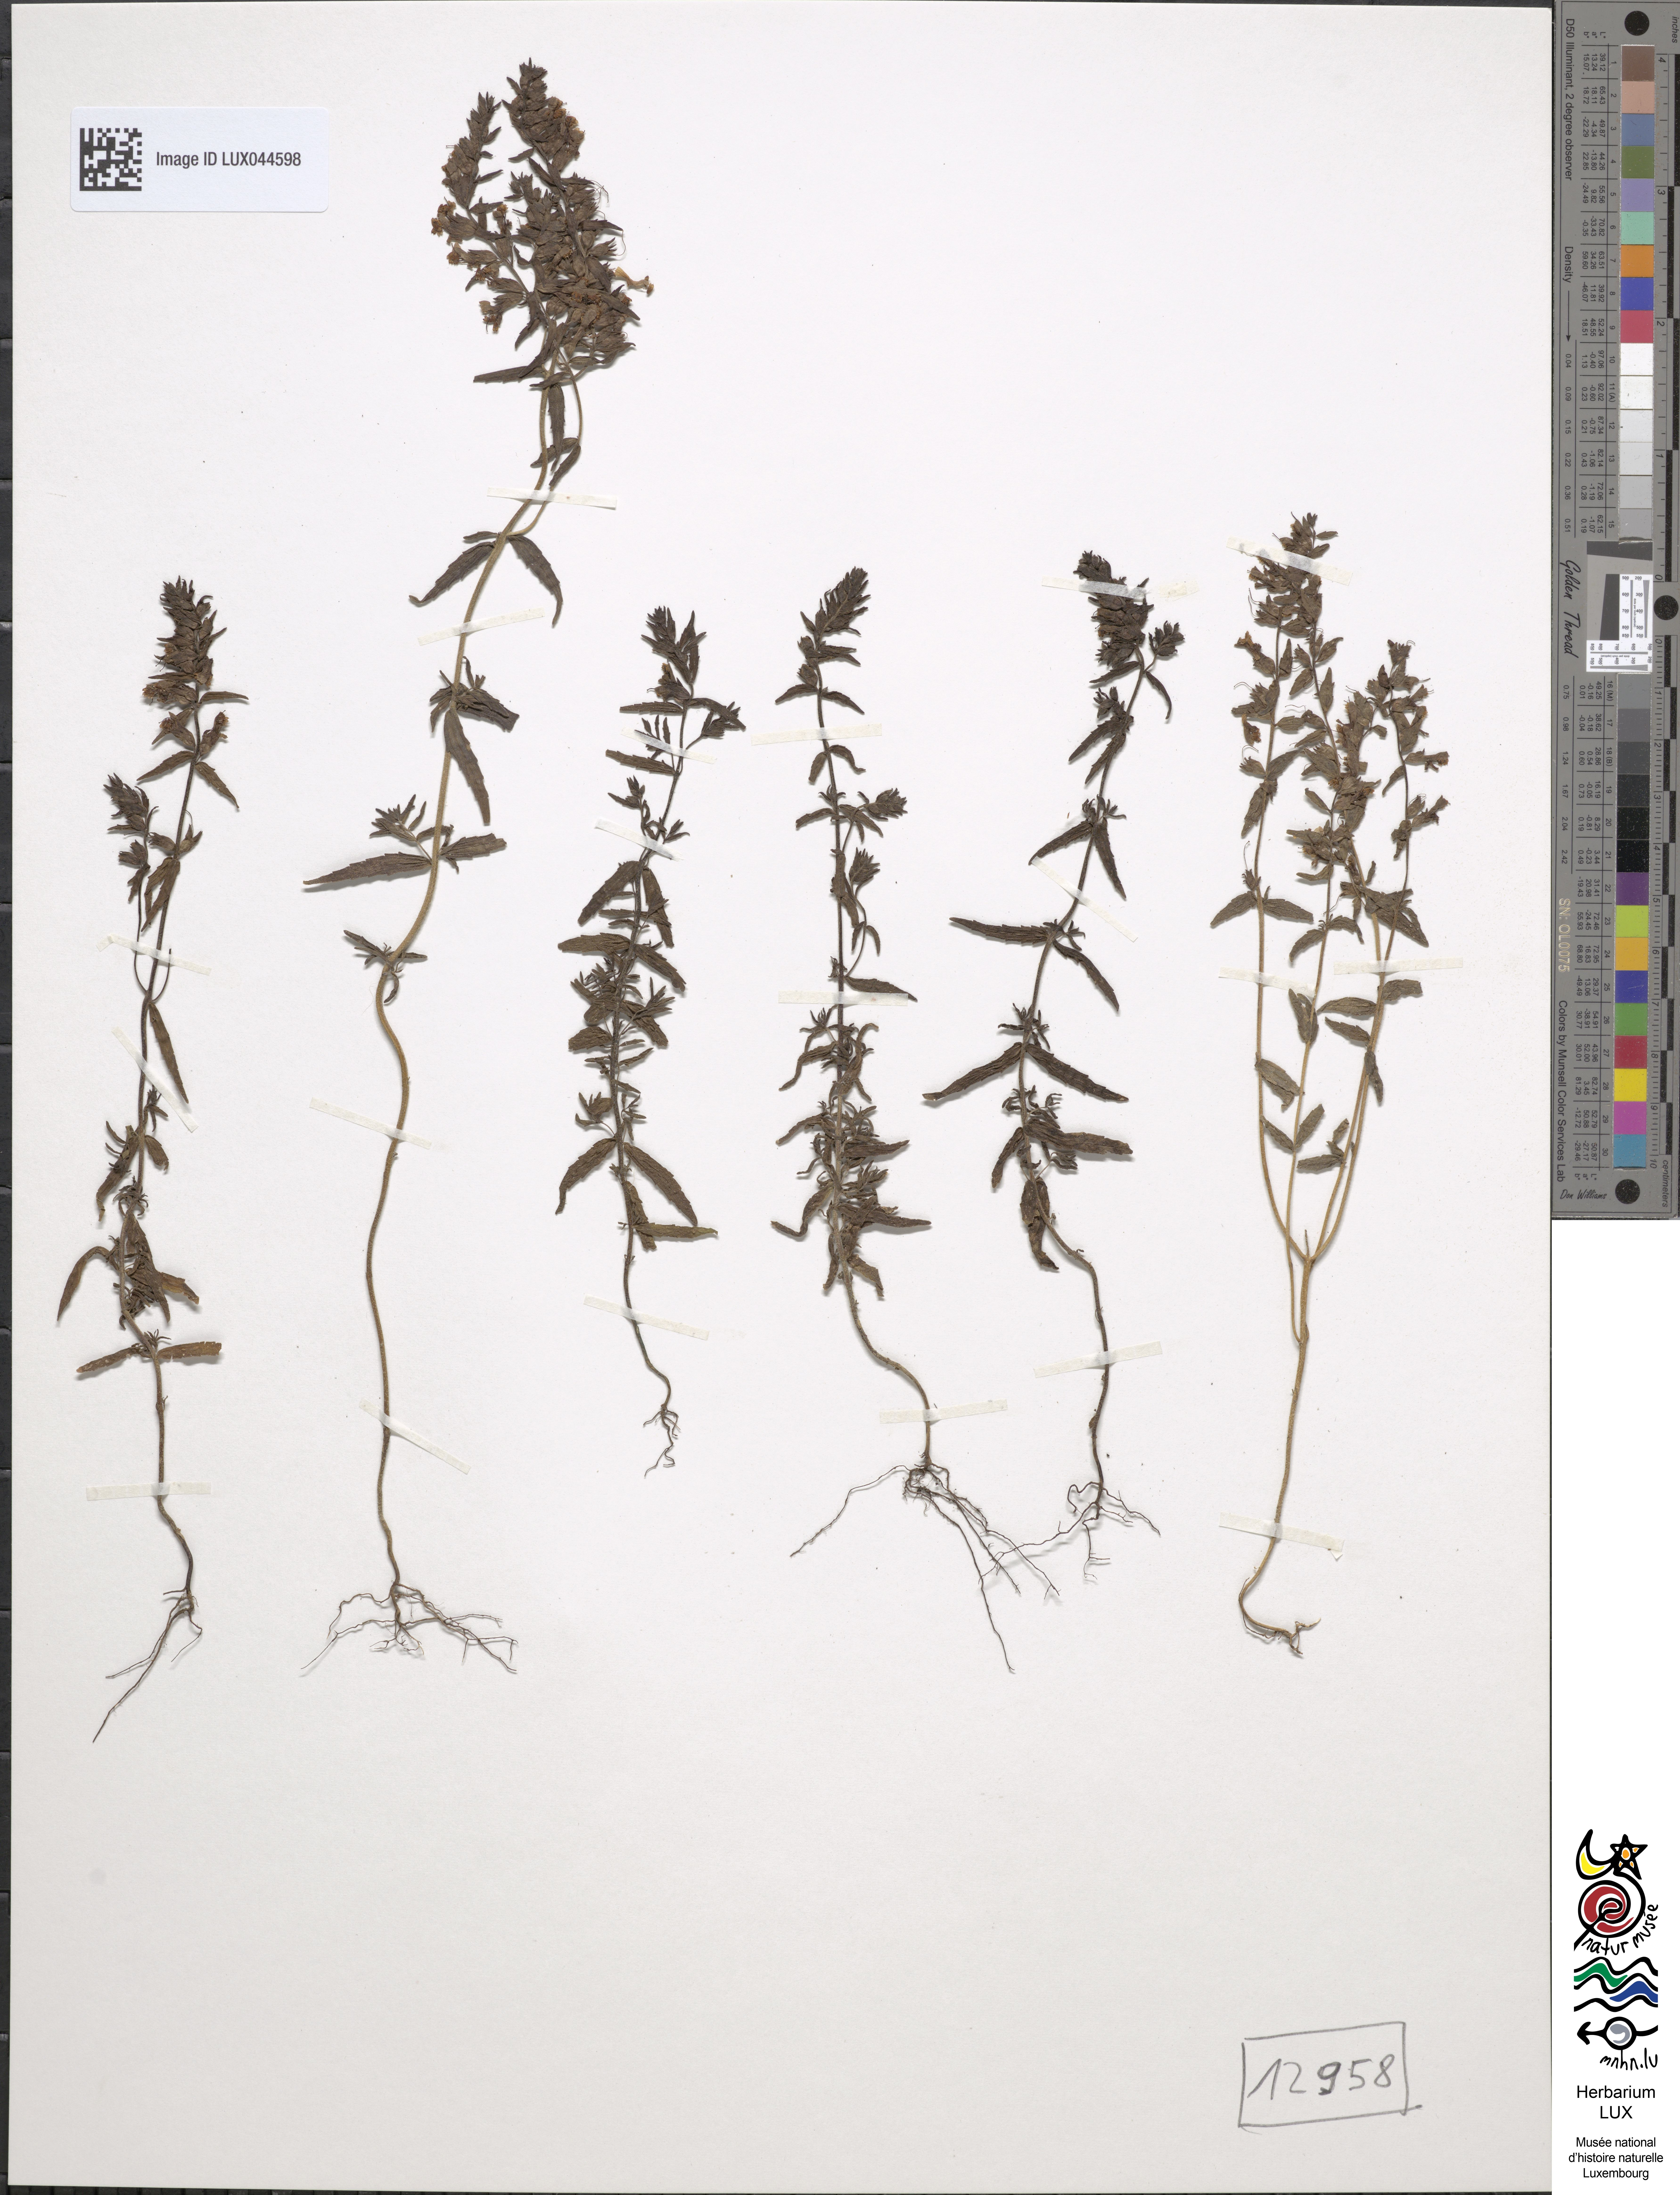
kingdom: Plantae
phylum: Tracheophyta
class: Magnoliopsida
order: Lamiales
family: Orobanchaceae
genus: Odontites
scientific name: Odontites vulgaris
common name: Broomrape
